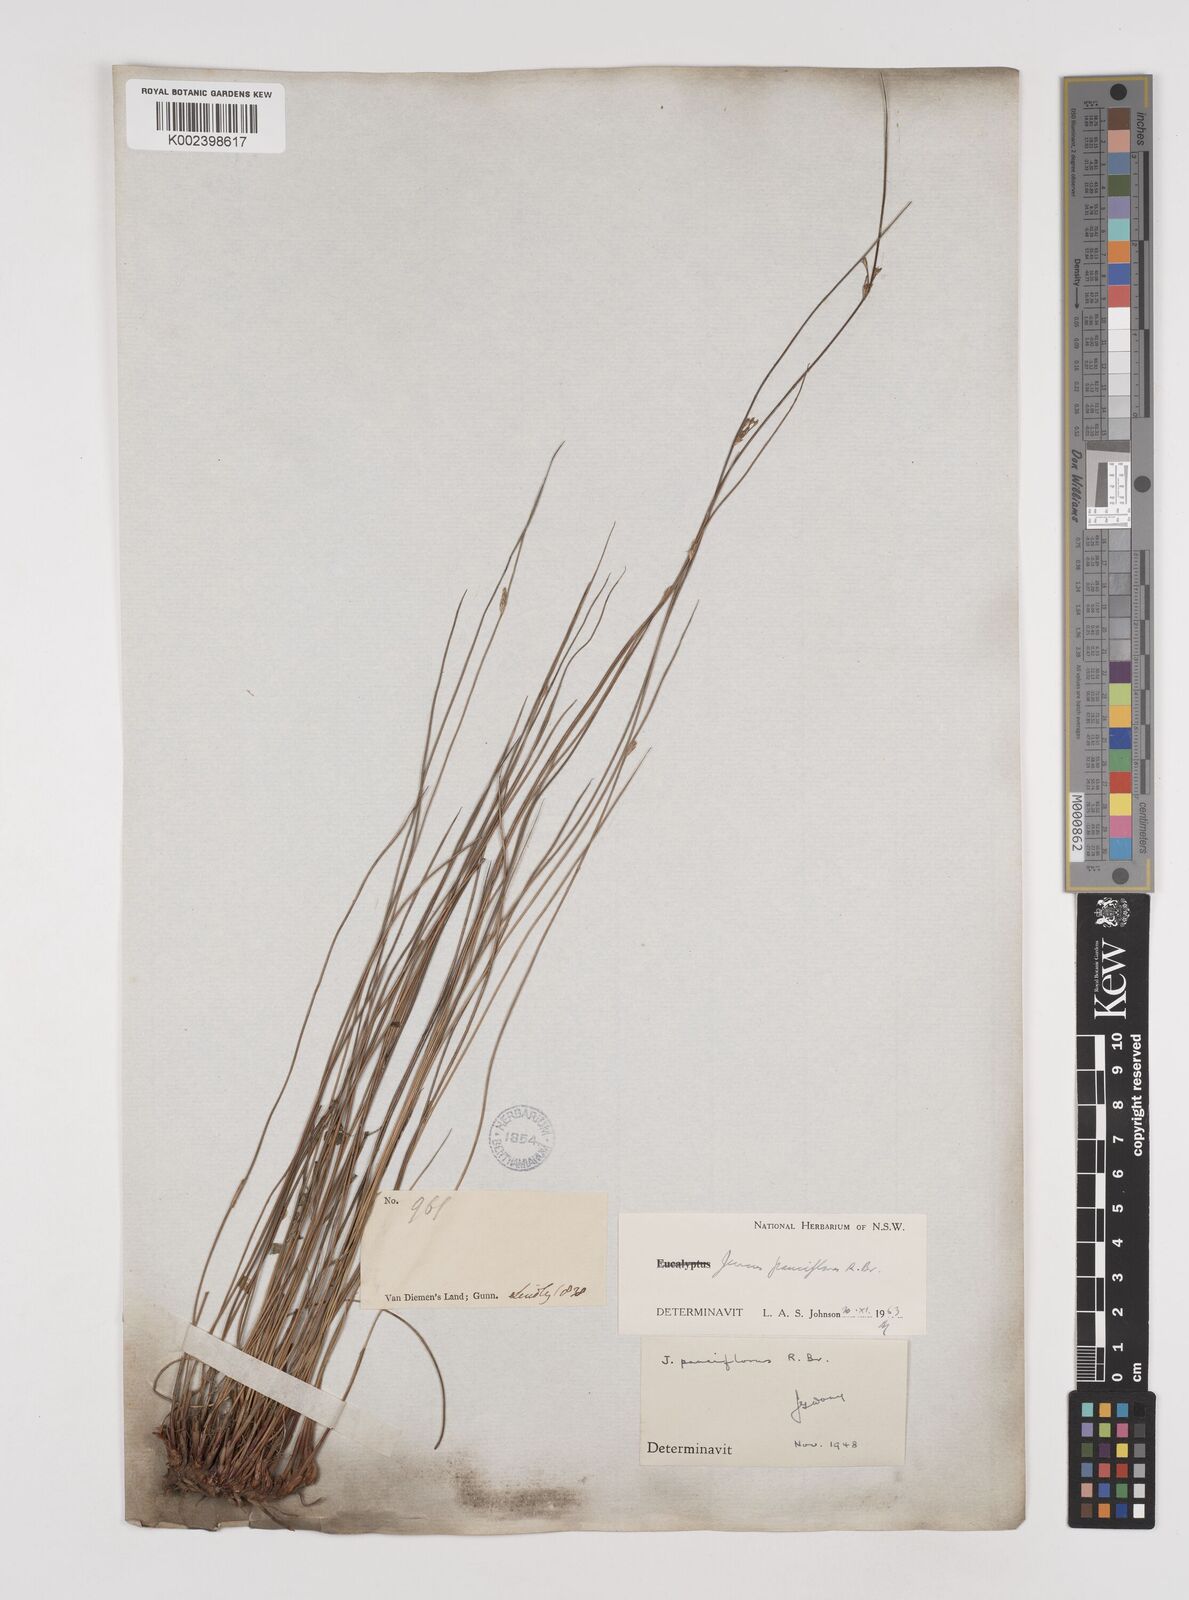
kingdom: Plantae
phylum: Tracheophyta
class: Liliopsida
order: Poales
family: Juncaceae
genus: Juncus
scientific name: Juncus pauciflorus
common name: Loose-flowered rush
